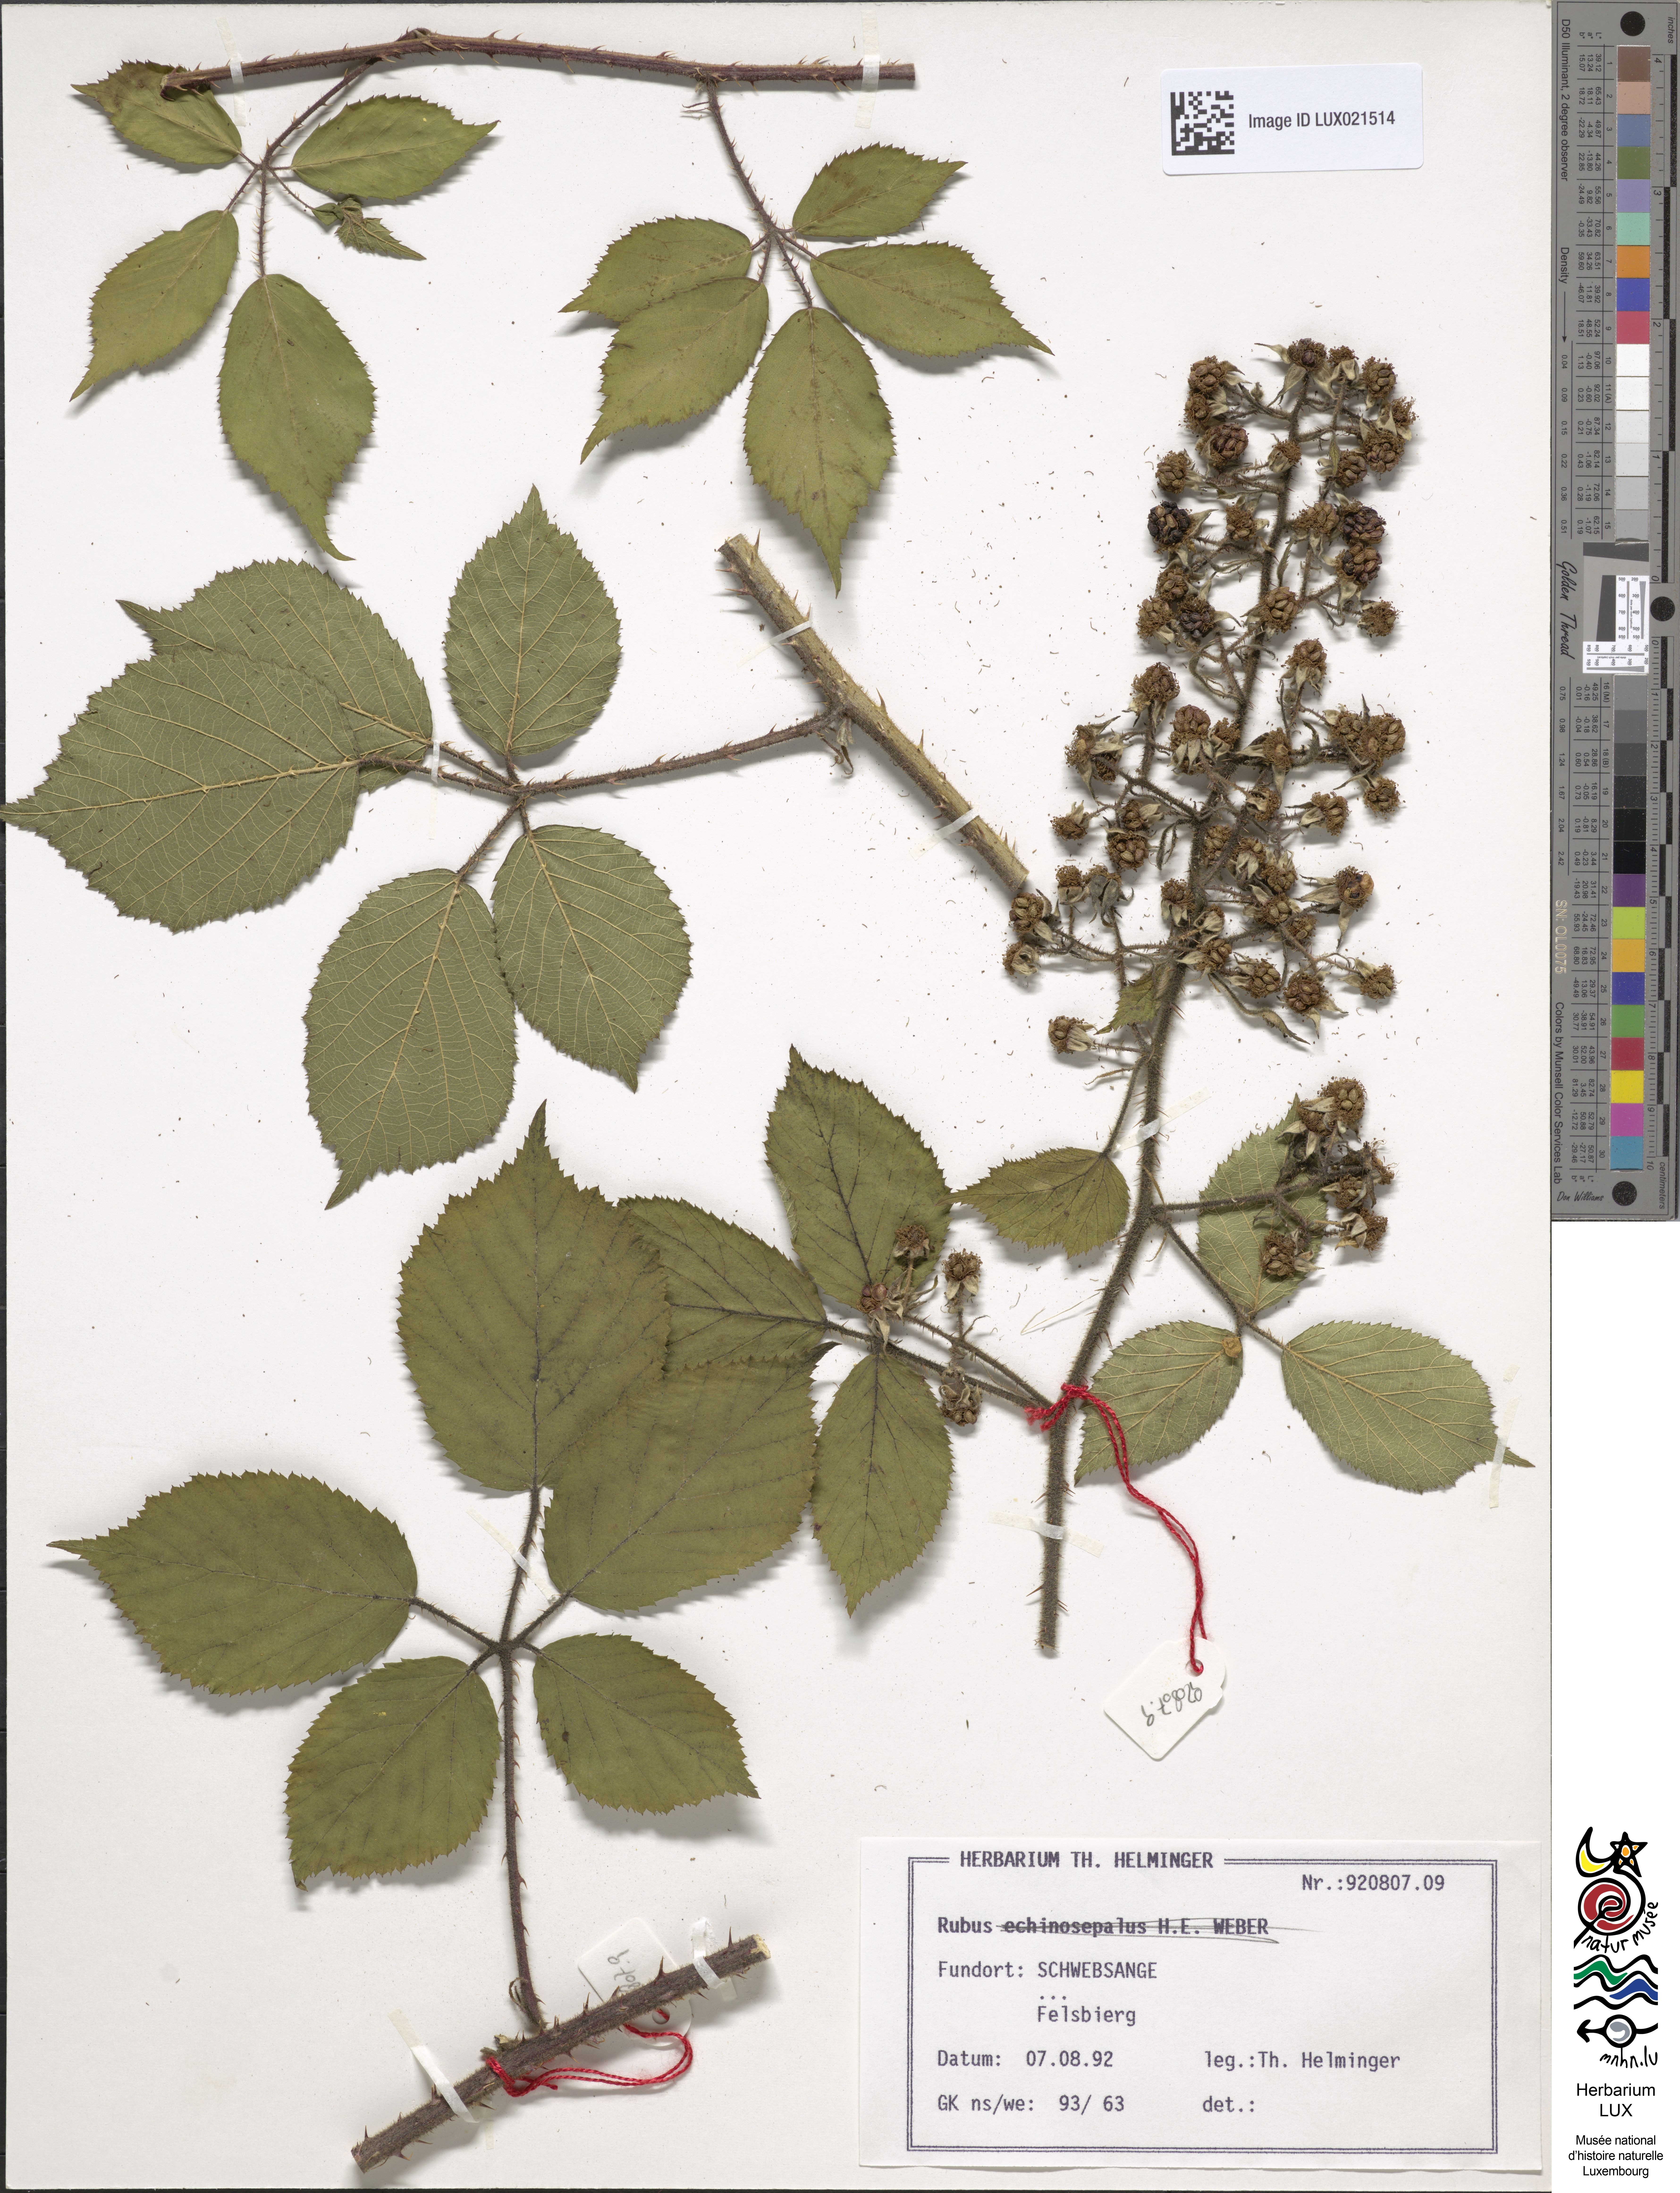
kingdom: Plantae
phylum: Tracheophyta
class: Magnoliopsida
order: Rosales
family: Rosaceae
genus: Rubus
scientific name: Rubus echinosepalus
